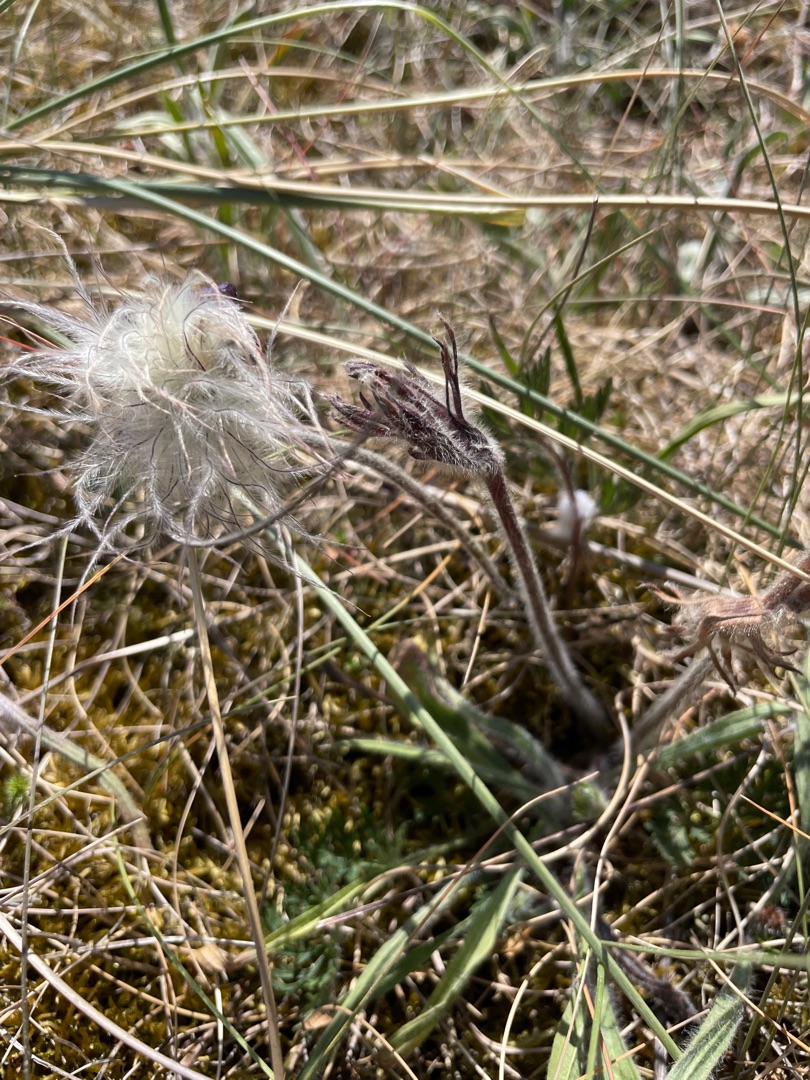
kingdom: Plantae
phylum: Tracheophyta
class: Magnoliopsida
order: Ranunculales
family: Ranunculaceae
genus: Pulsatilla
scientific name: Pulsatilla pratensis
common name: Nikkende kobjælde
